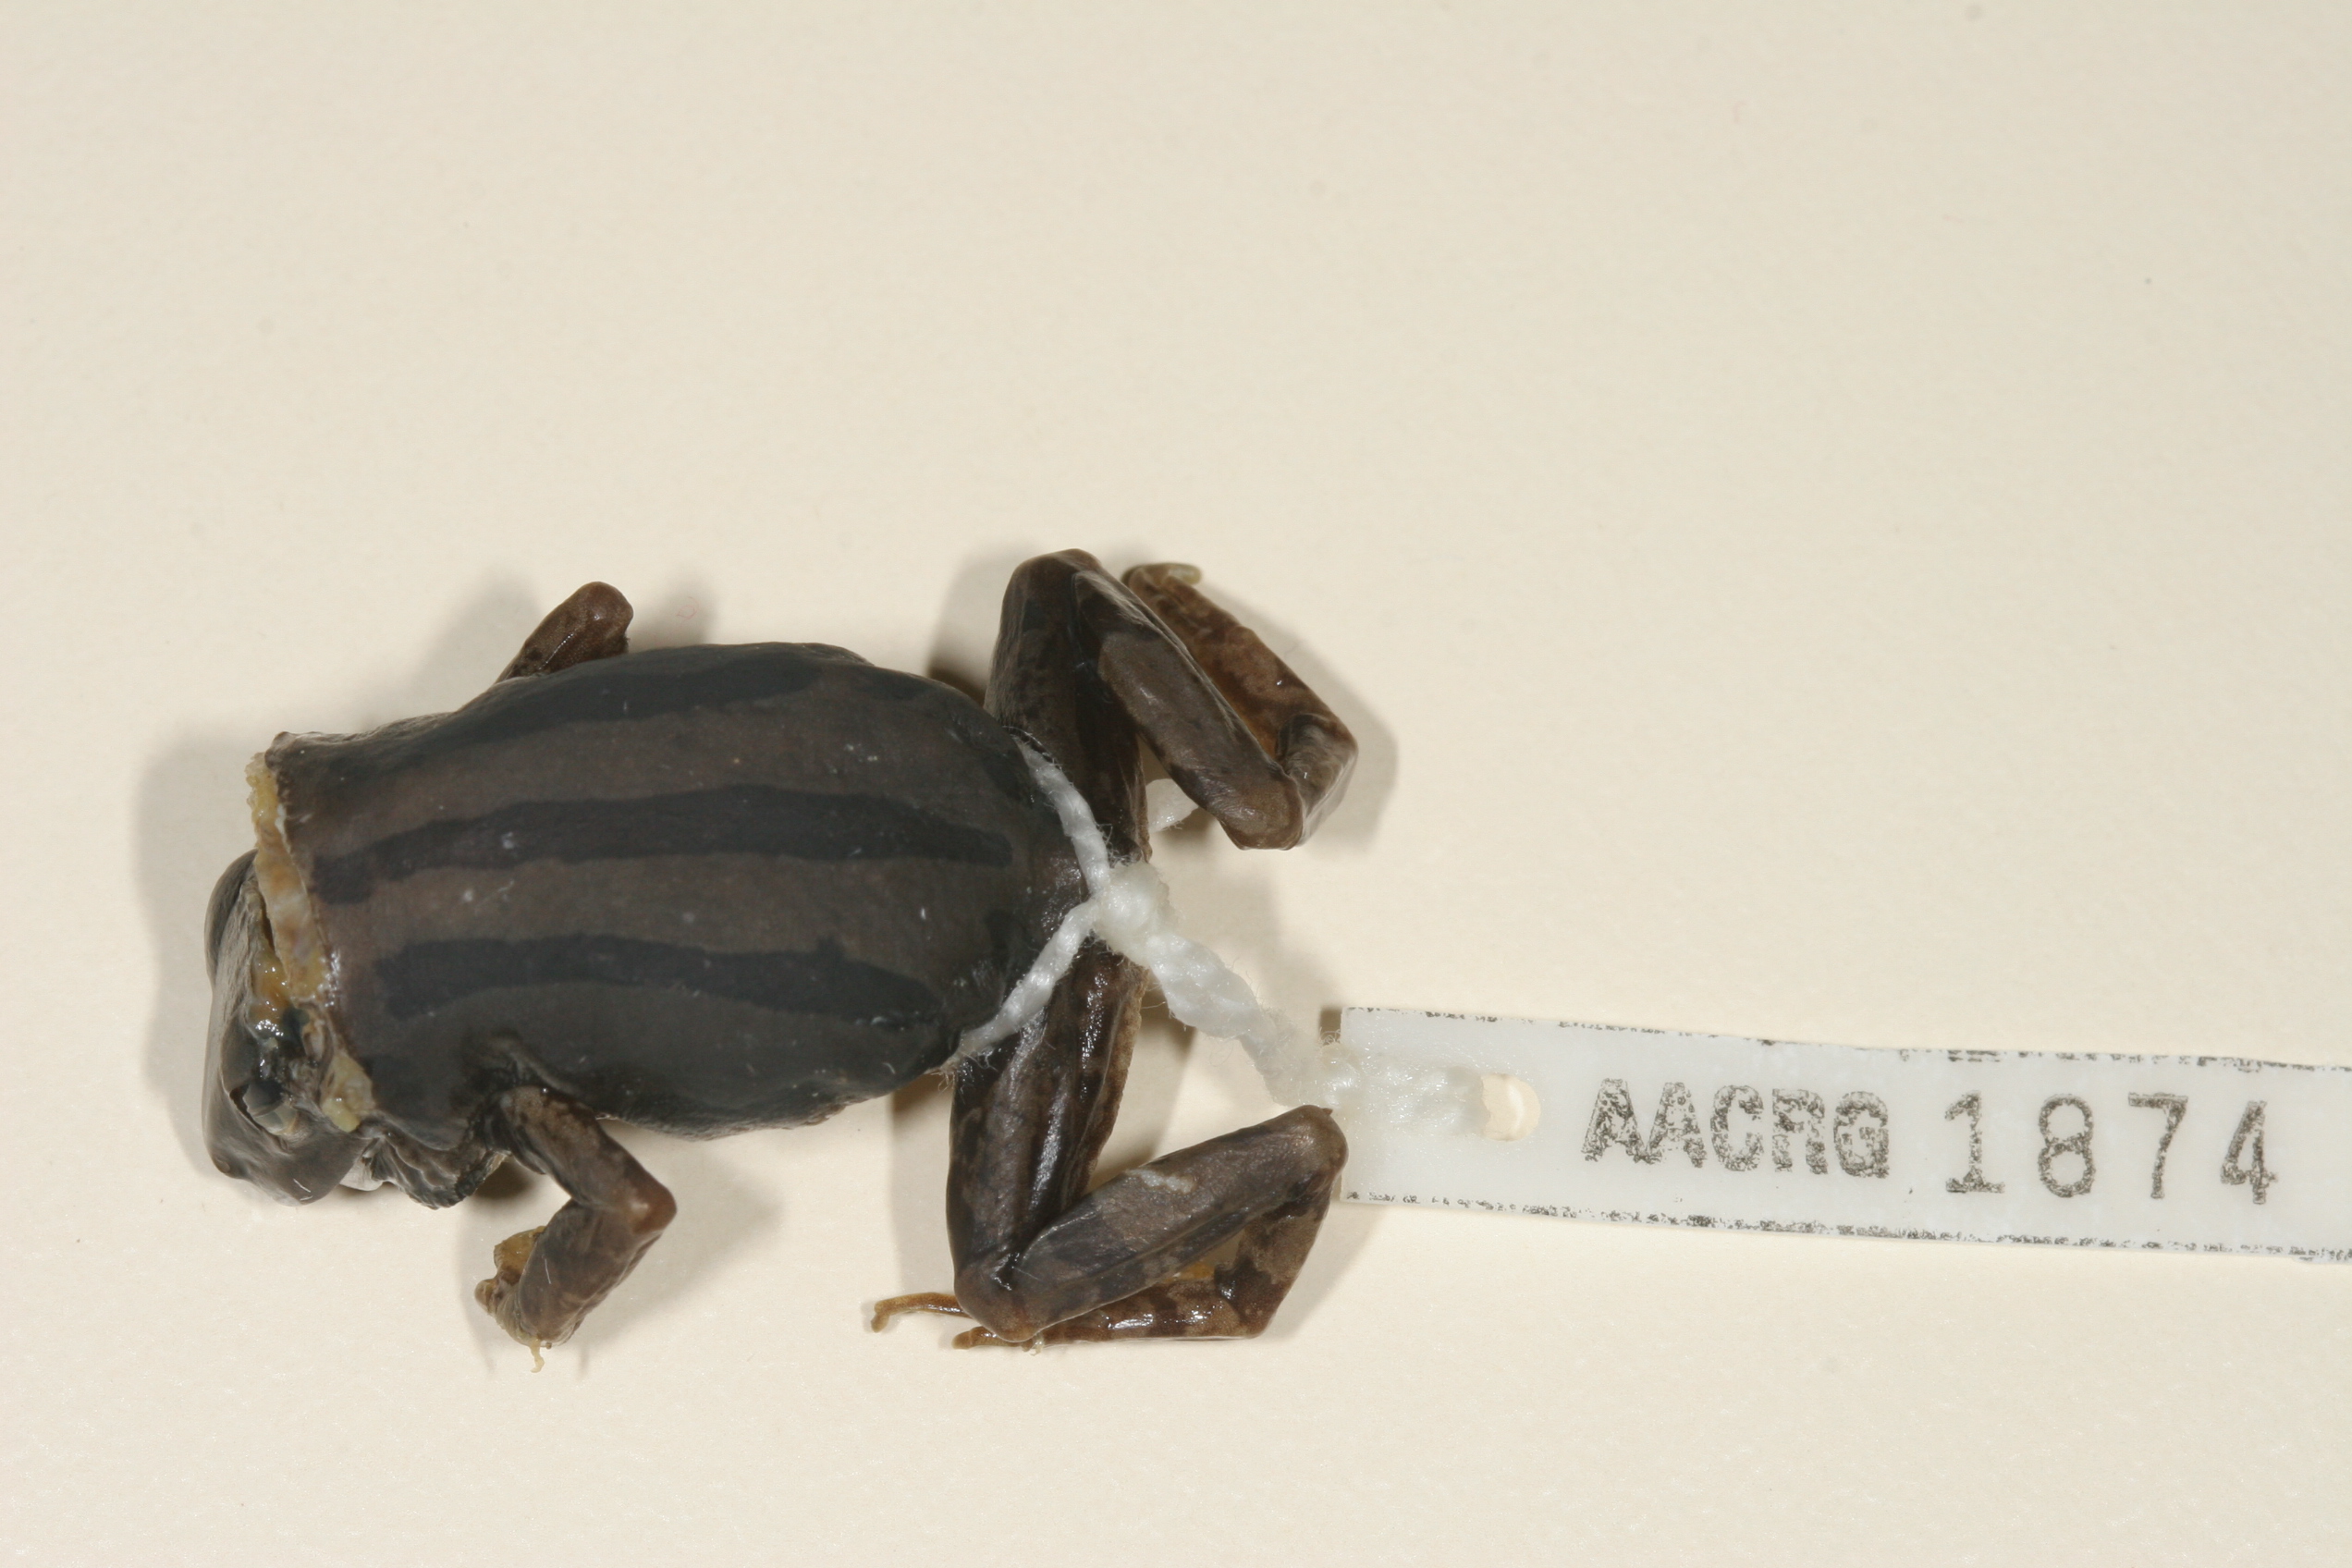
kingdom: Animalia
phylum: Chordata
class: Amphibia
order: Anura
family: Hyperoliidae
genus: Kassina
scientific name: Kassina senegalensis
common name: Senegal land frog
